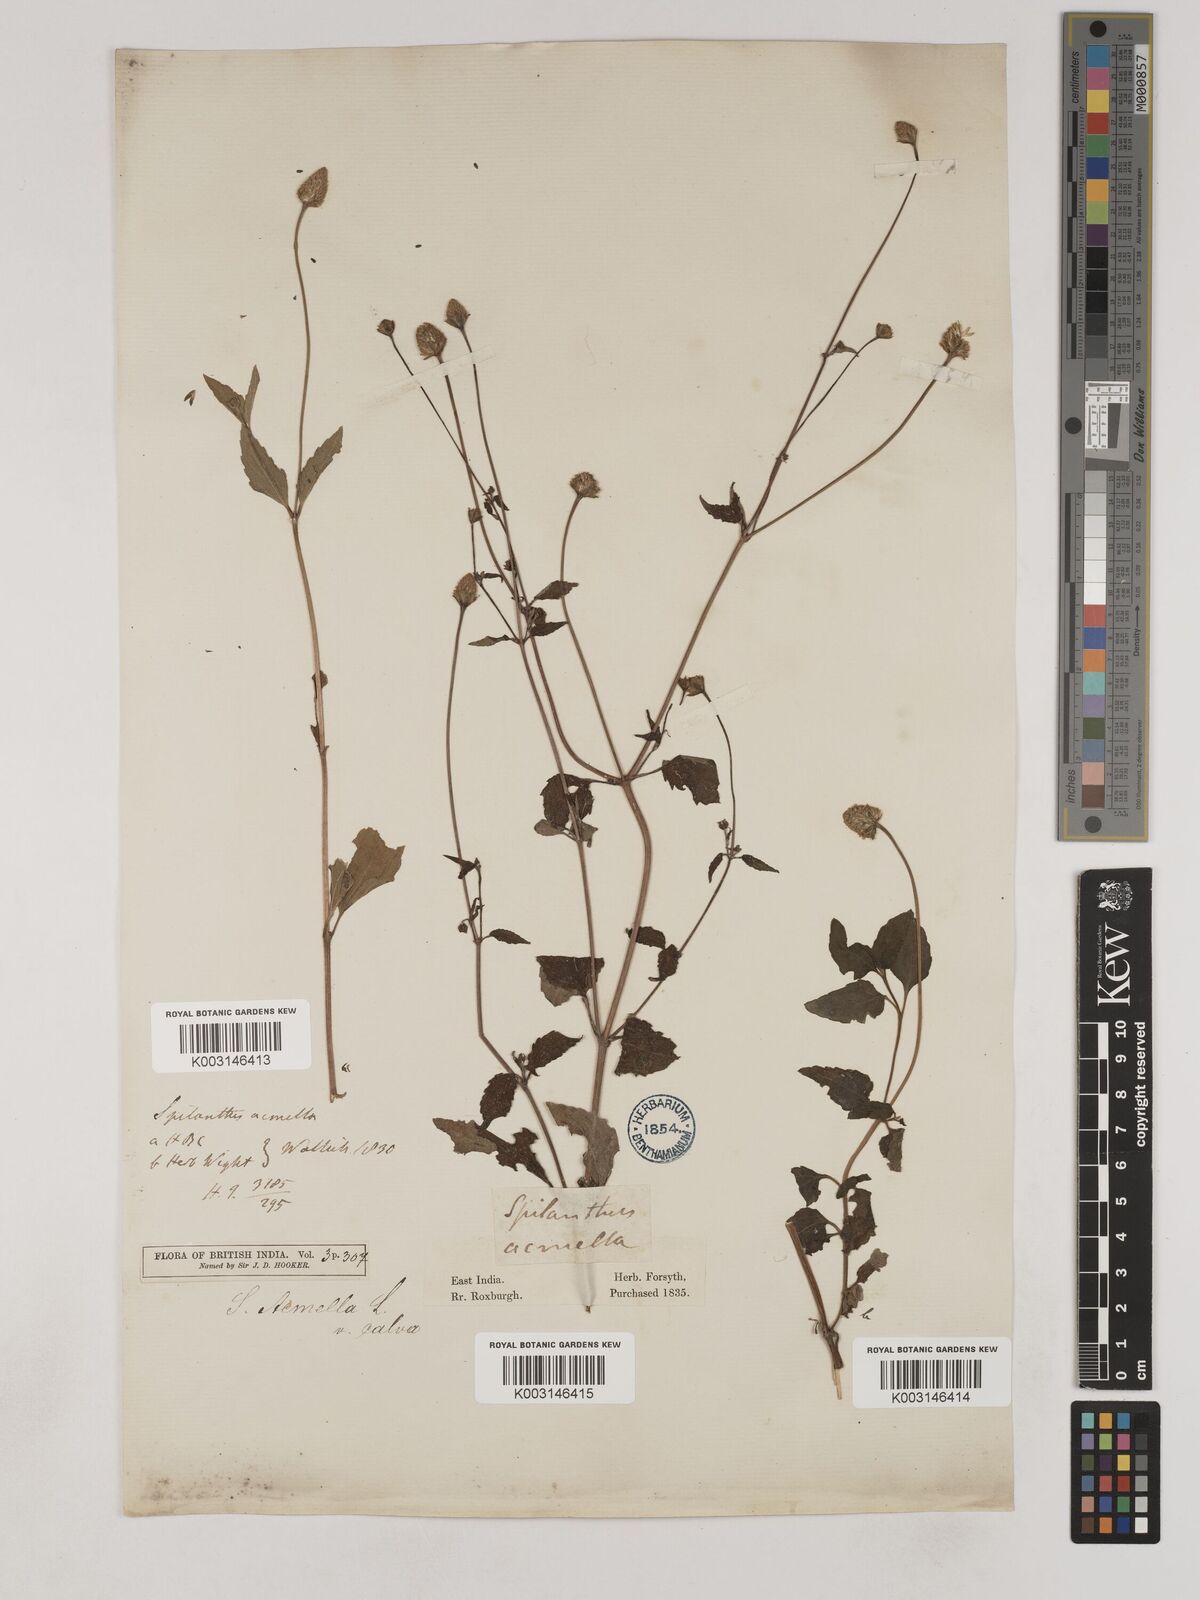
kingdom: Plantae
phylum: Tracheophyta
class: Magnoliopsida
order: Asterales
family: Asteraceae
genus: Acmella
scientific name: Acmella calva
